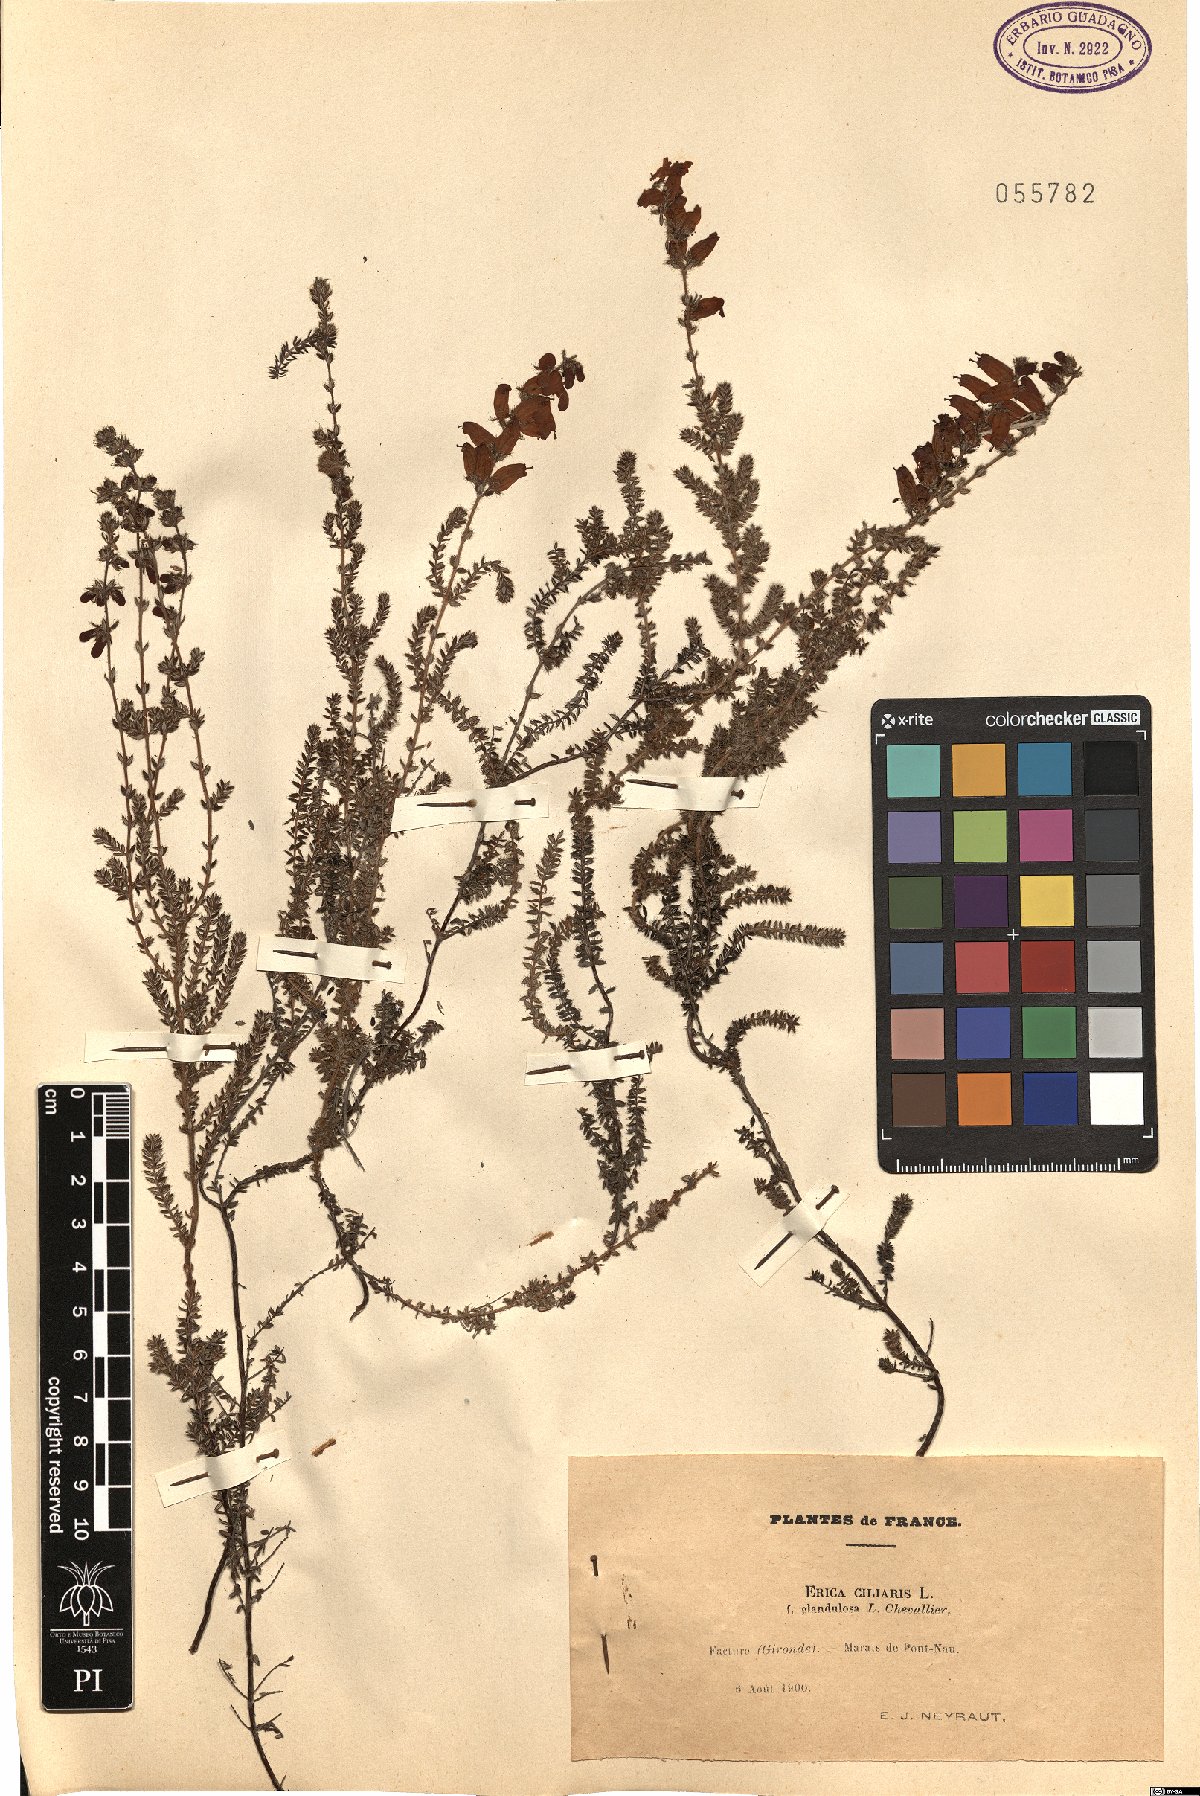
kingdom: Plantae
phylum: Tracheophyta
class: Magnoliopsida
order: Ericales
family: Ericaceae
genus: Erica
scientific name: Erica ciliaris
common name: Dorset heath
